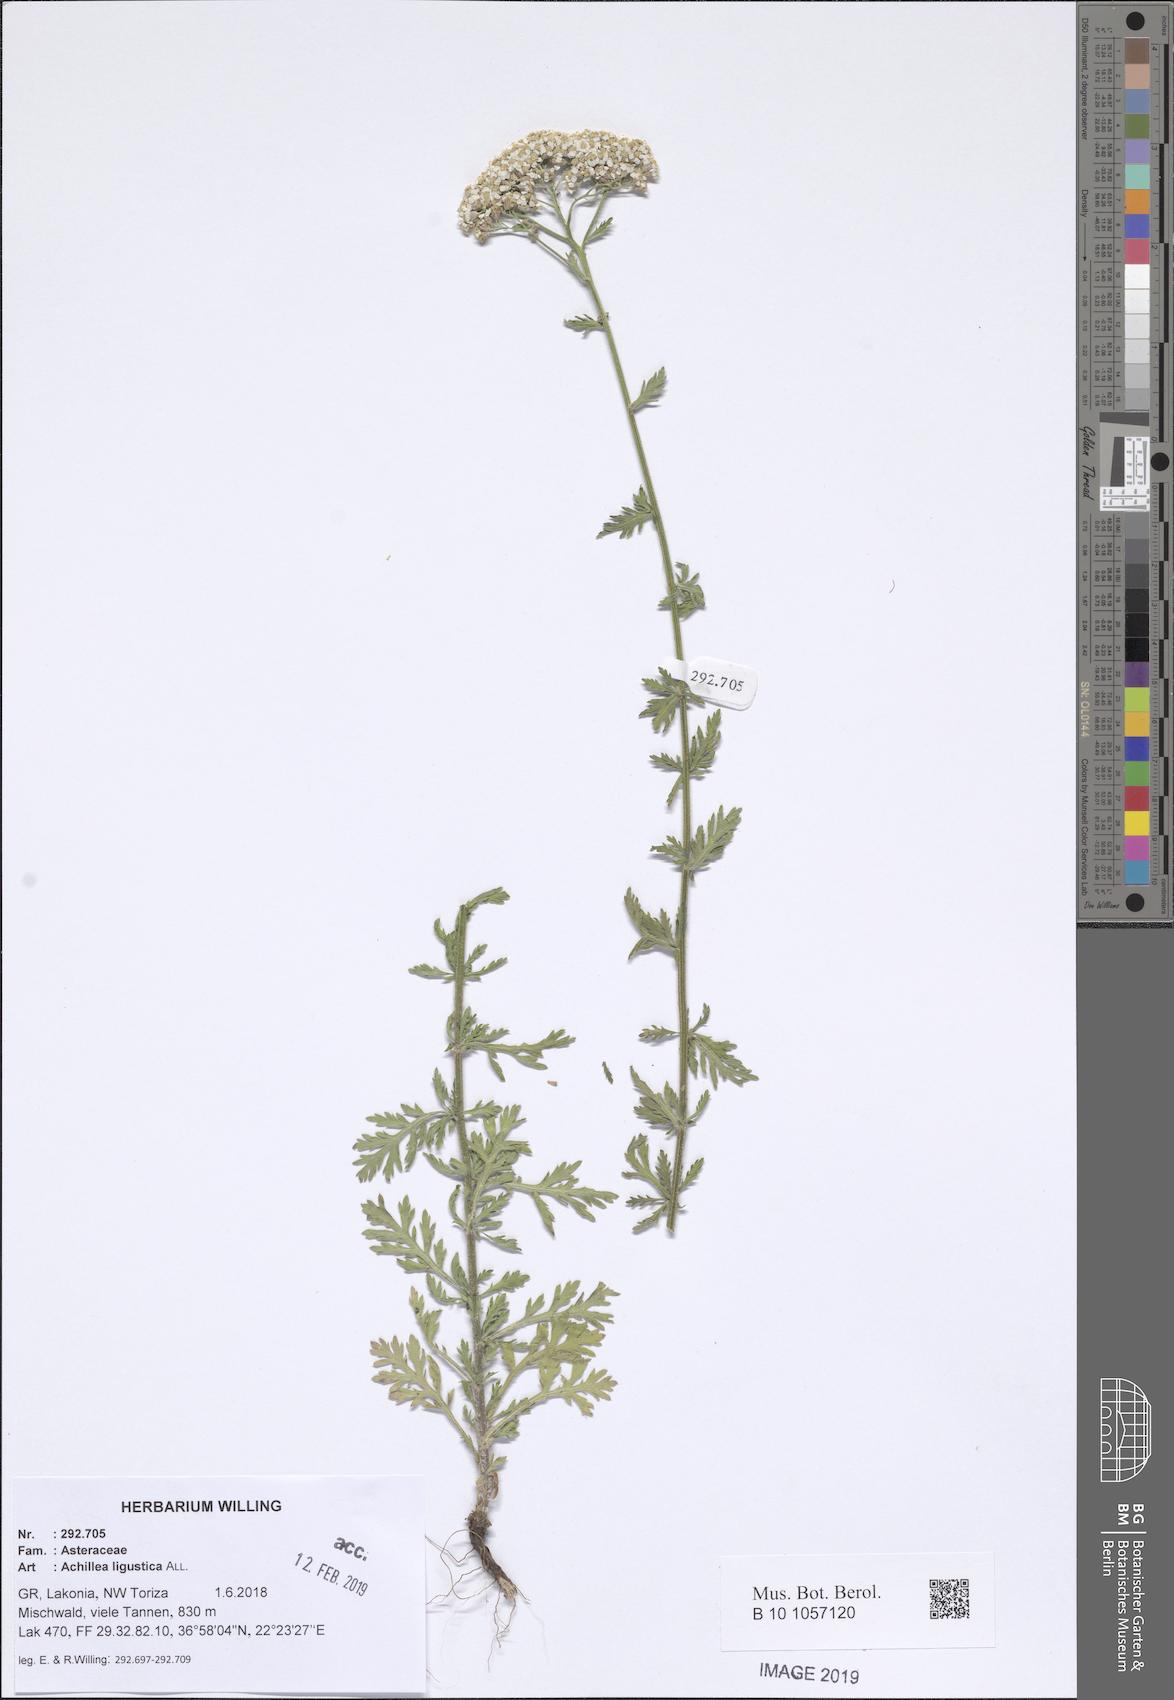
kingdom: Plantae
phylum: Tracheophyta
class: Magnoliopsida
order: Asterales
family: Asteraceae
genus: Achillea
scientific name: Achillea ligustica
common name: Southern yarrow
